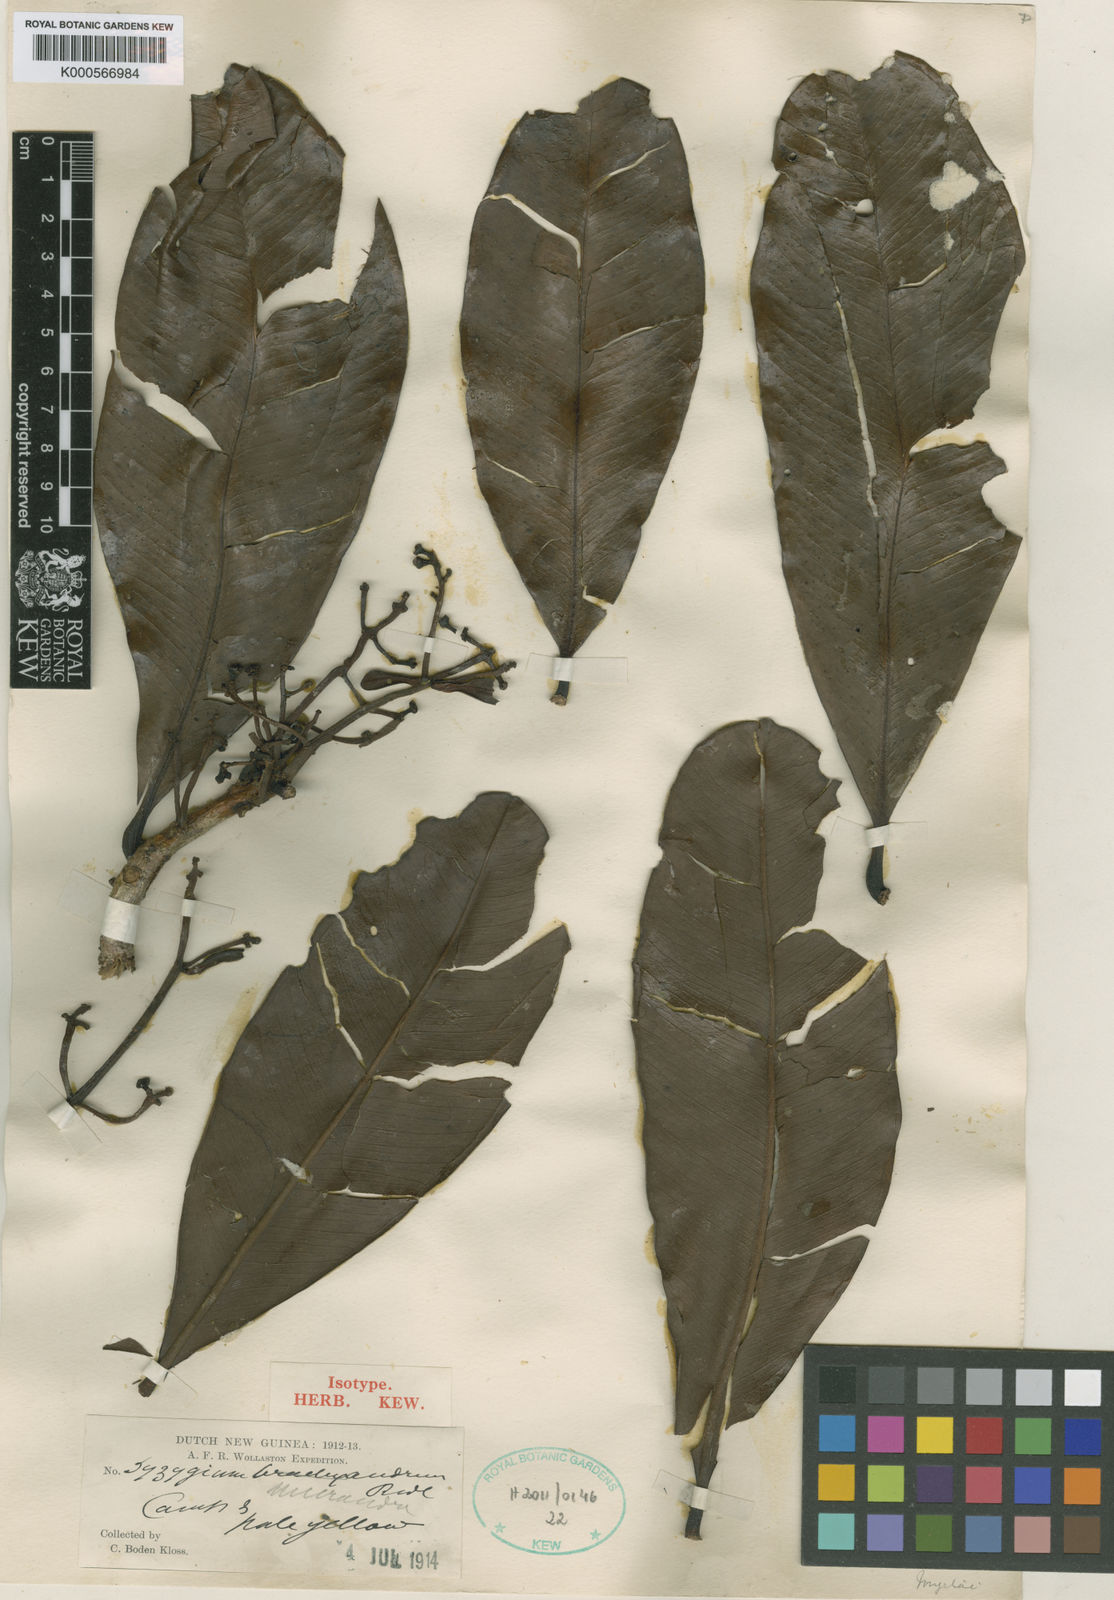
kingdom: Plantae
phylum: Tracheophyta
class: Magnoliopsida
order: Myrtales
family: Myrtaceae
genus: Syzygium
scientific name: Syzygium micrandrum
